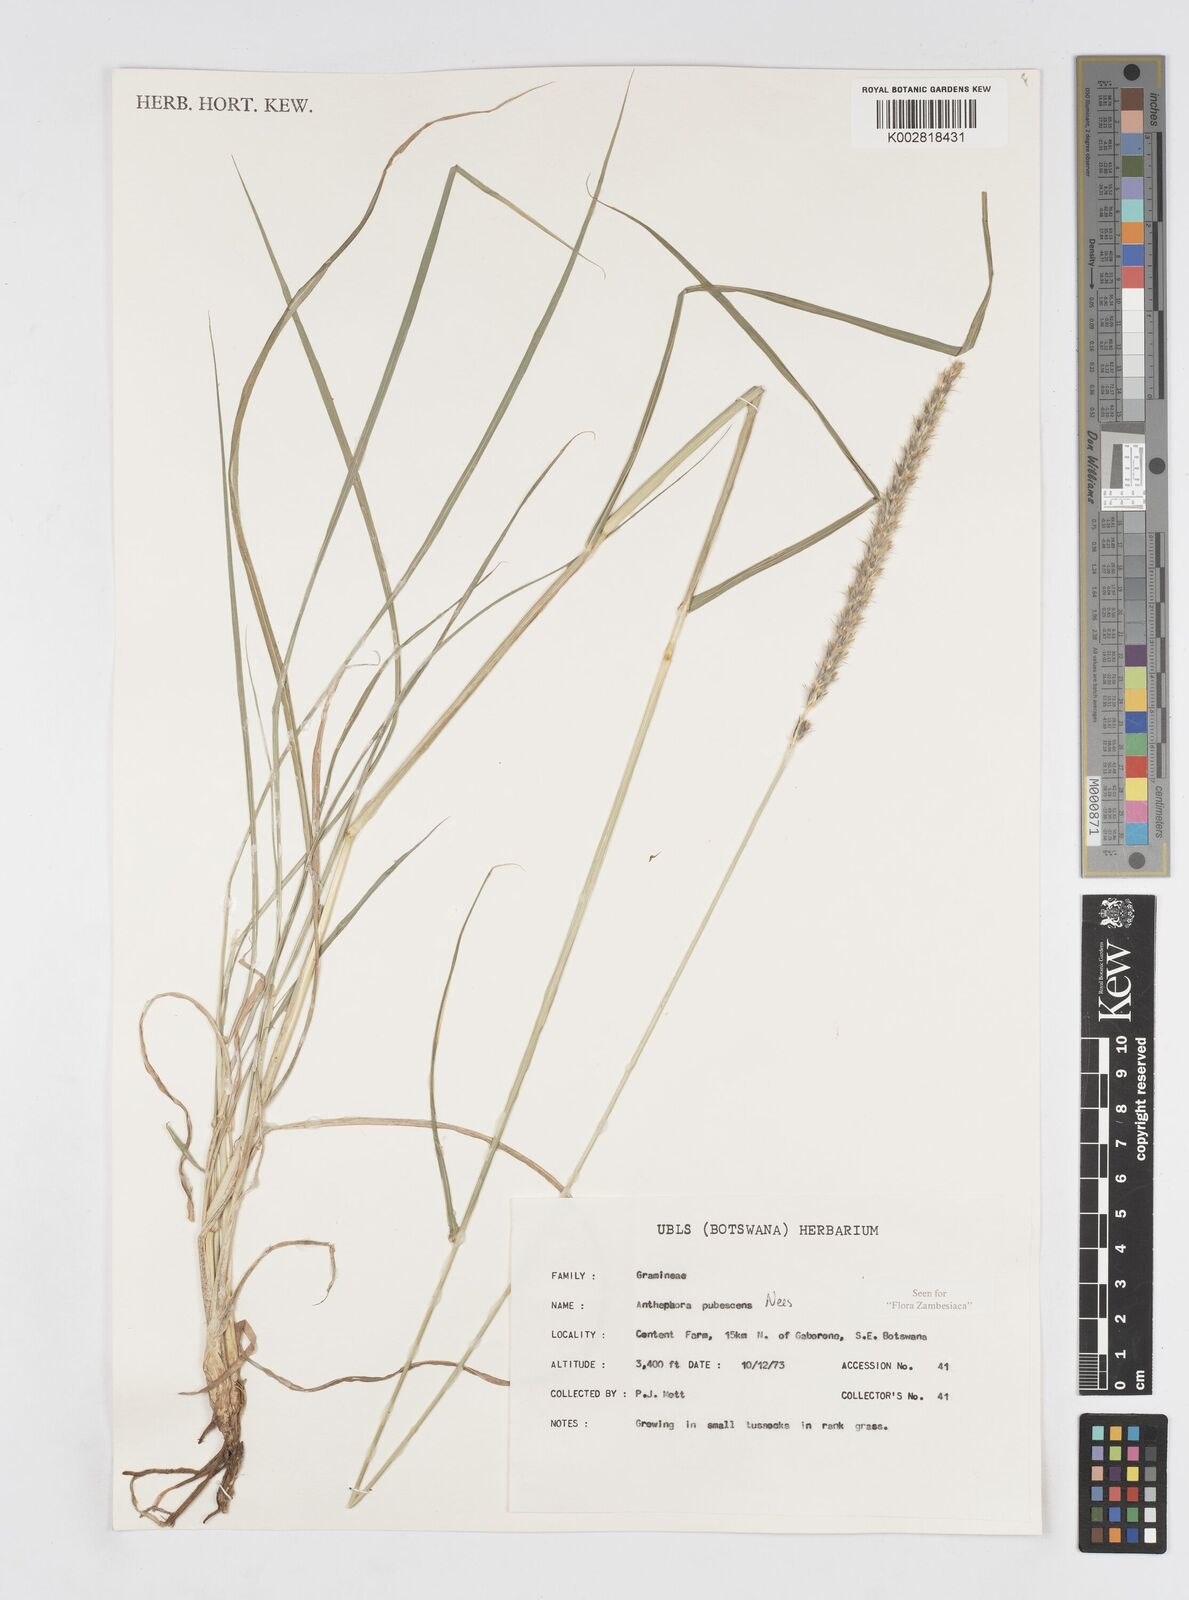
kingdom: Plantae
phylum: Tracheophyta
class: Liliopsida
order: Poales
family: Poaceae
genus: Anthephora
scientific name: Anthephora pubescens
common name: Wool grass
